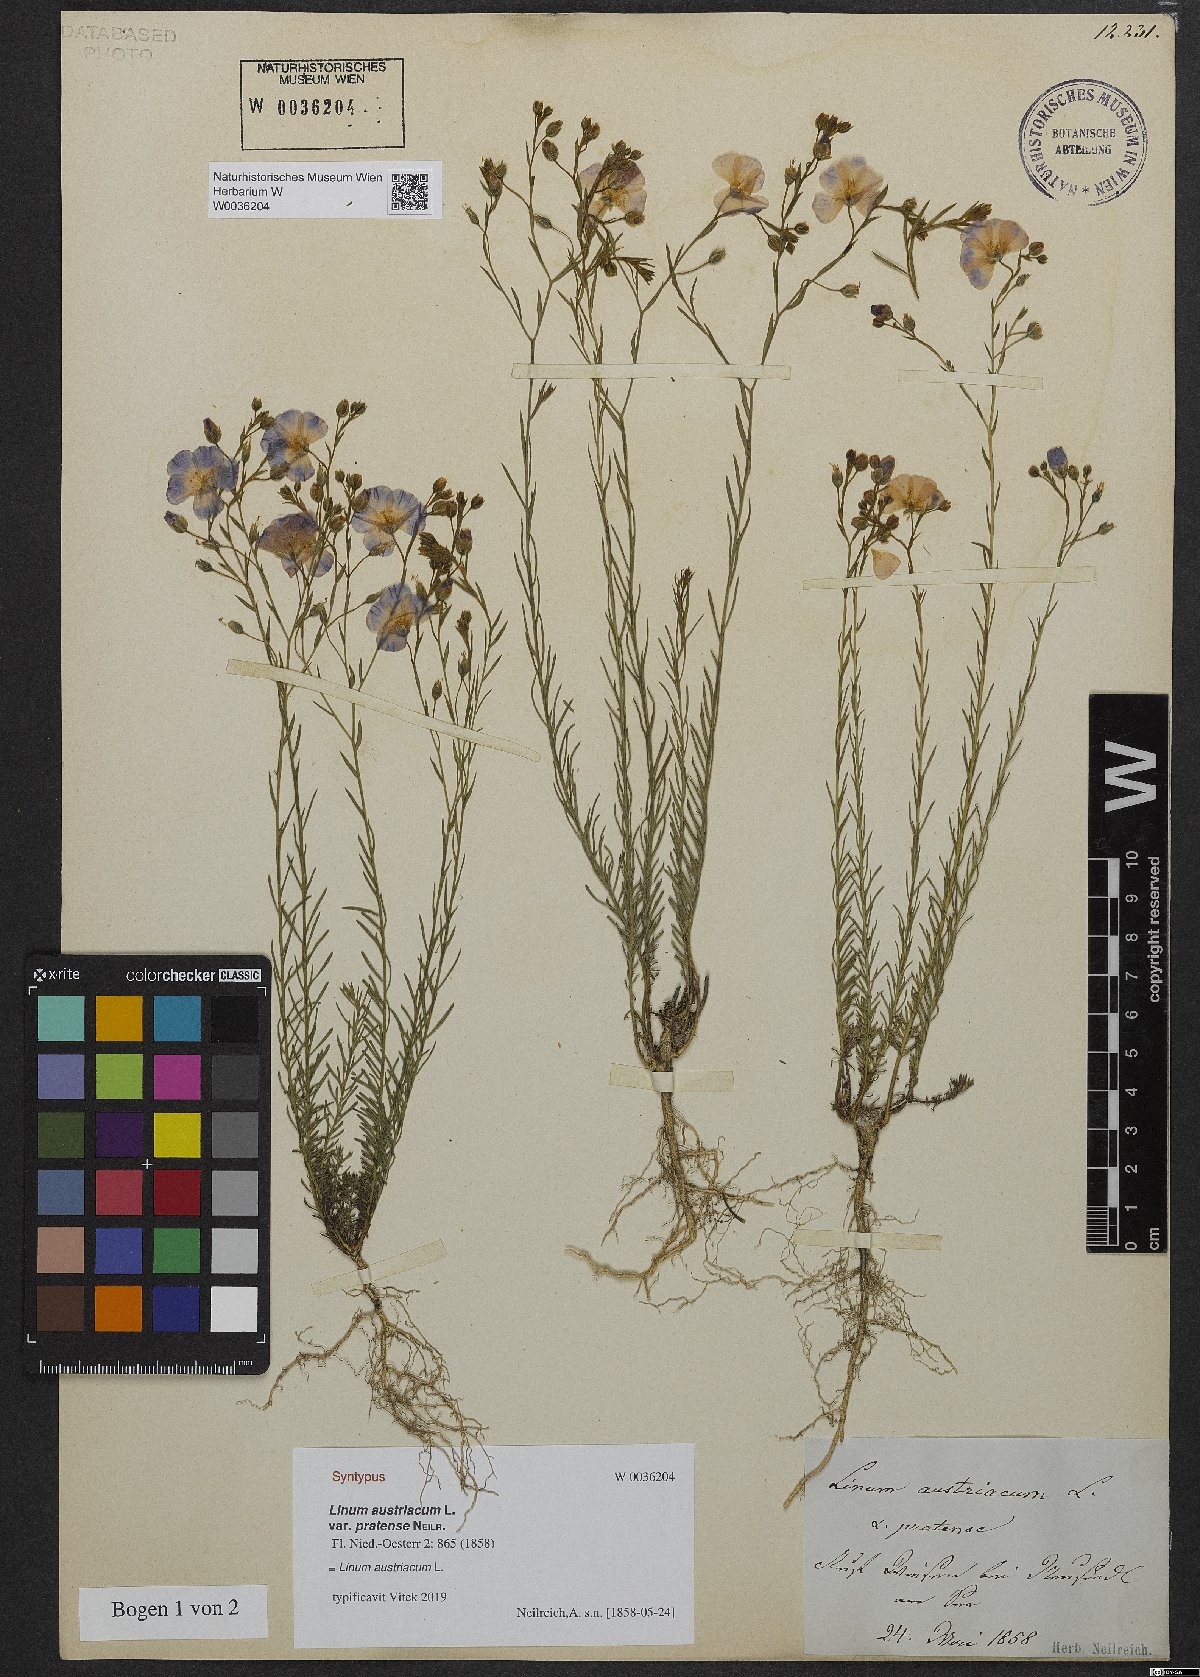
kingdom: Plantae
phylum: Tracheophyta
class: Magnoliopsida
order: Malpighiales
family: Linaceae
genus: Linum
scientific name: Linum austriacum
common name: Austrian flax
